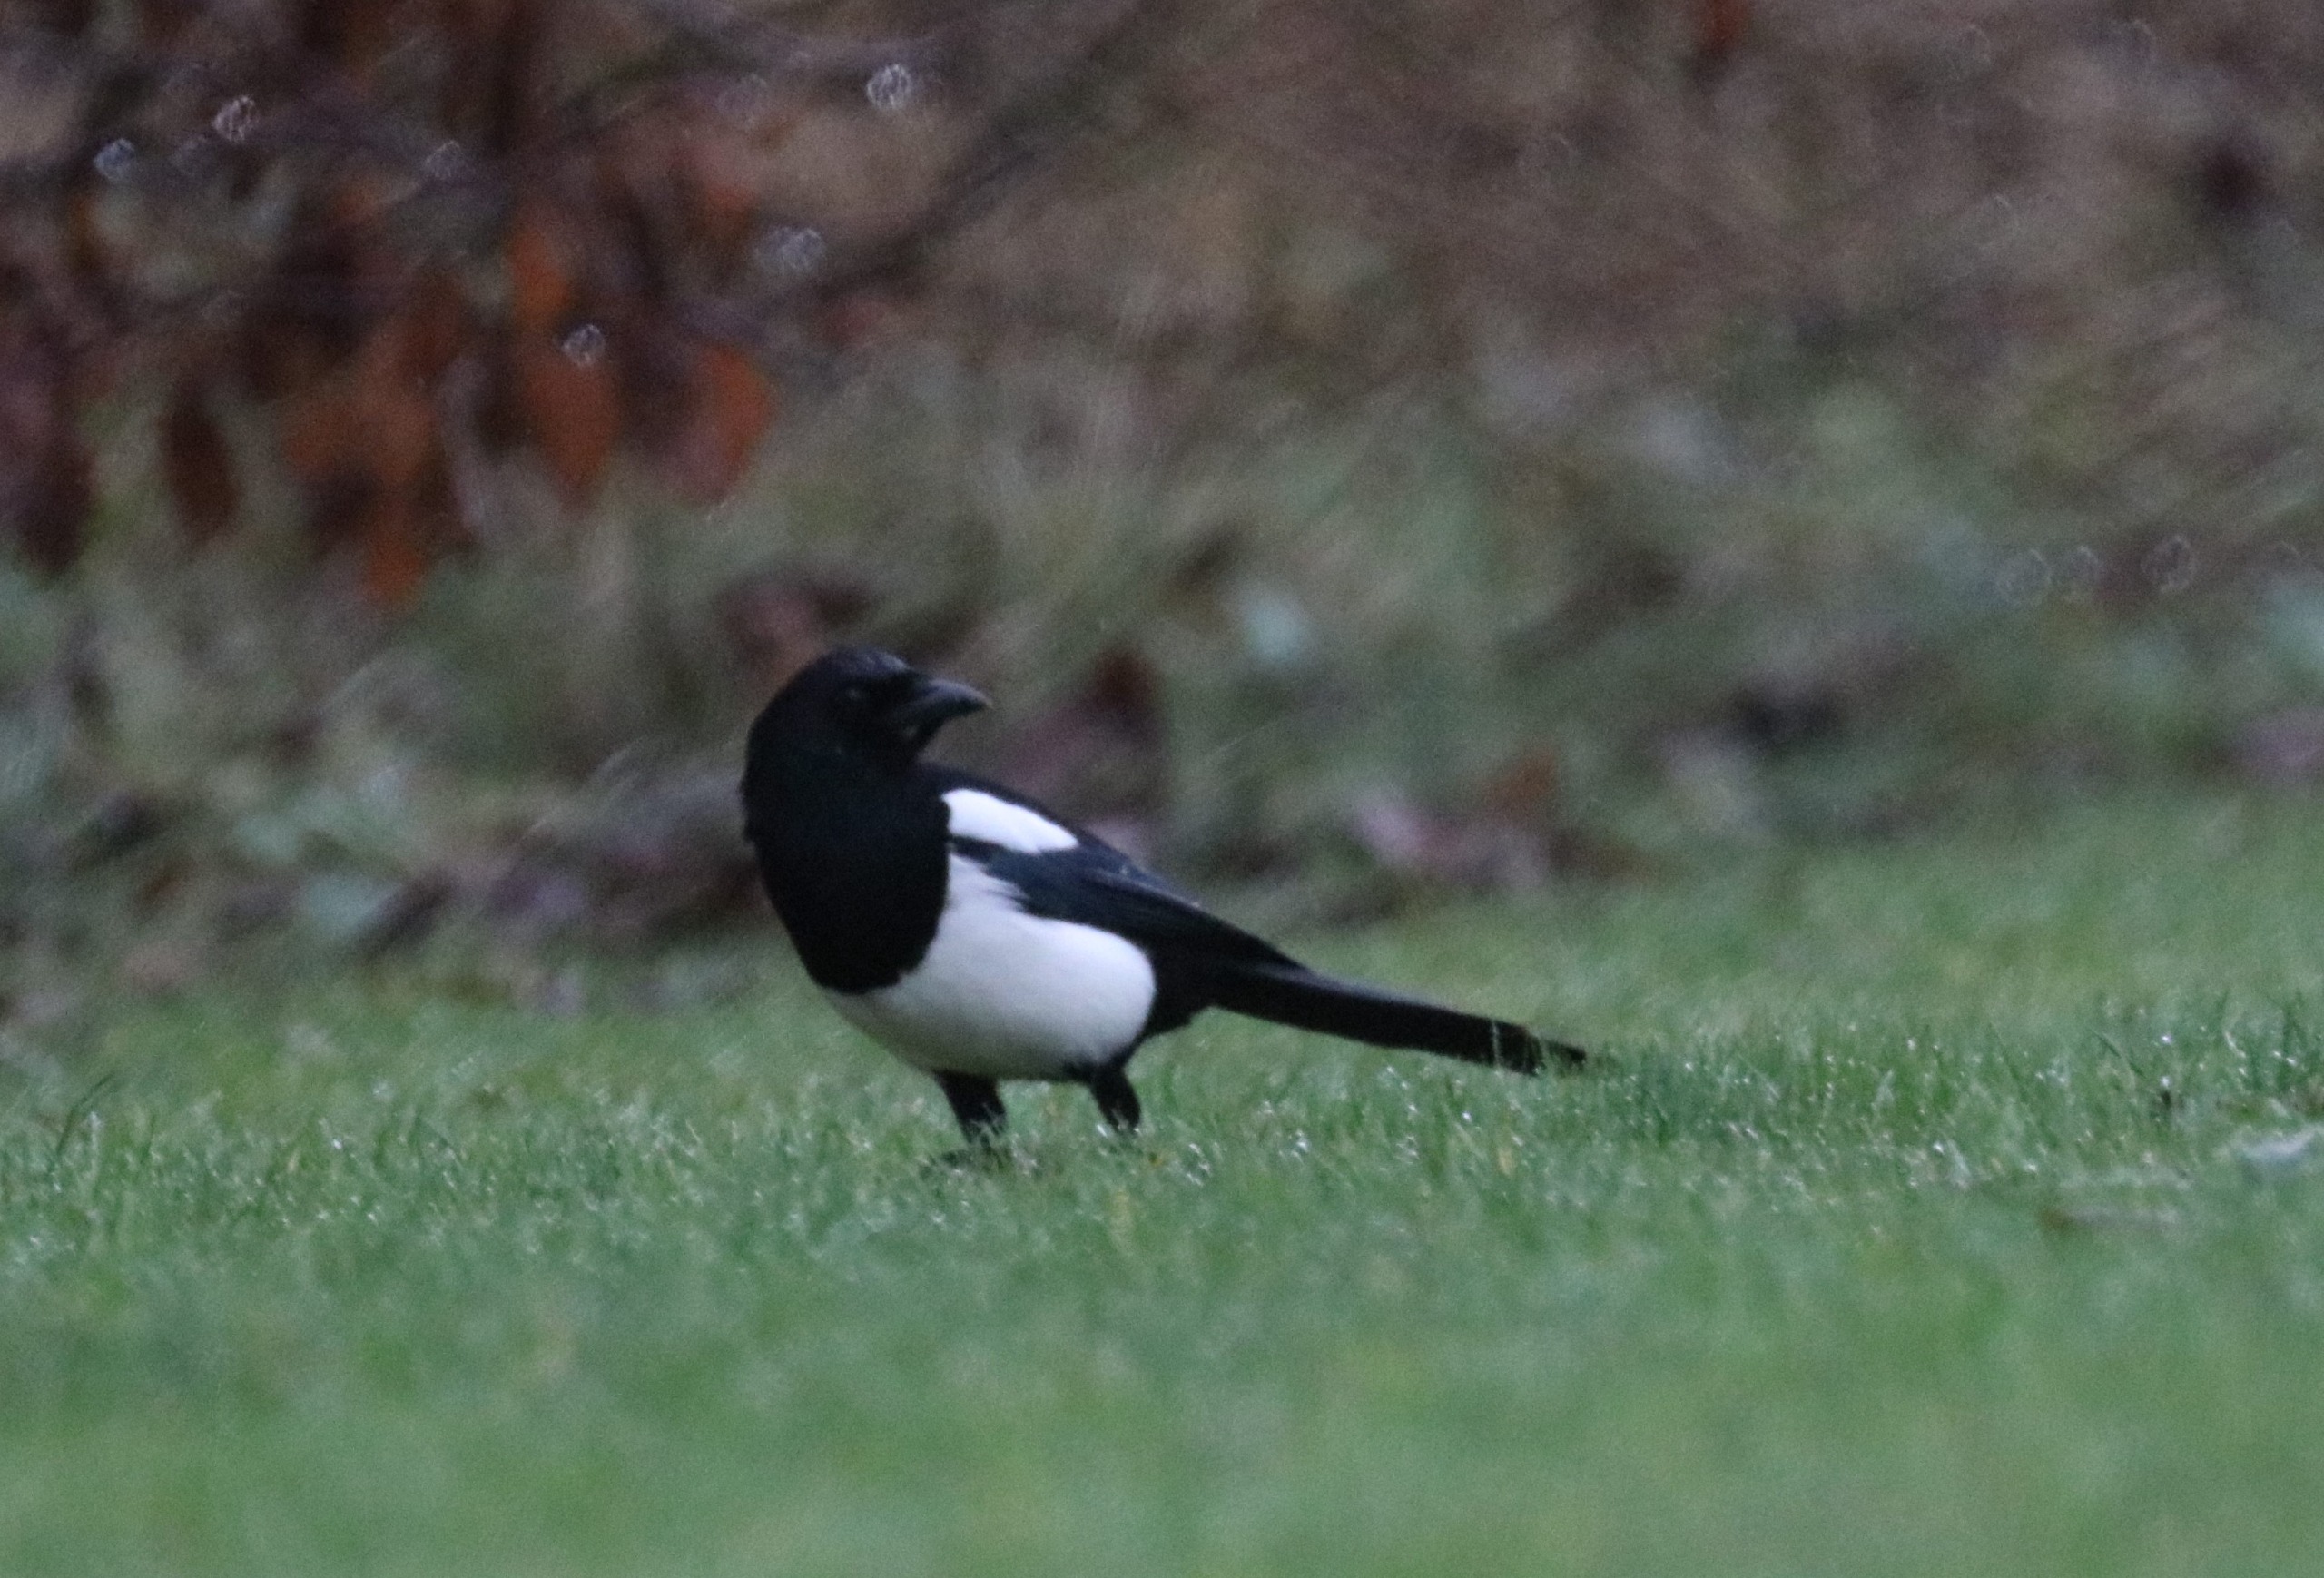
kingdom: Animalia
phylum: Chordata
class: Aves
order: Passeriformes
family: Corvidae
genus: Pica
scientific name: Pica pica
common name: Husskade
